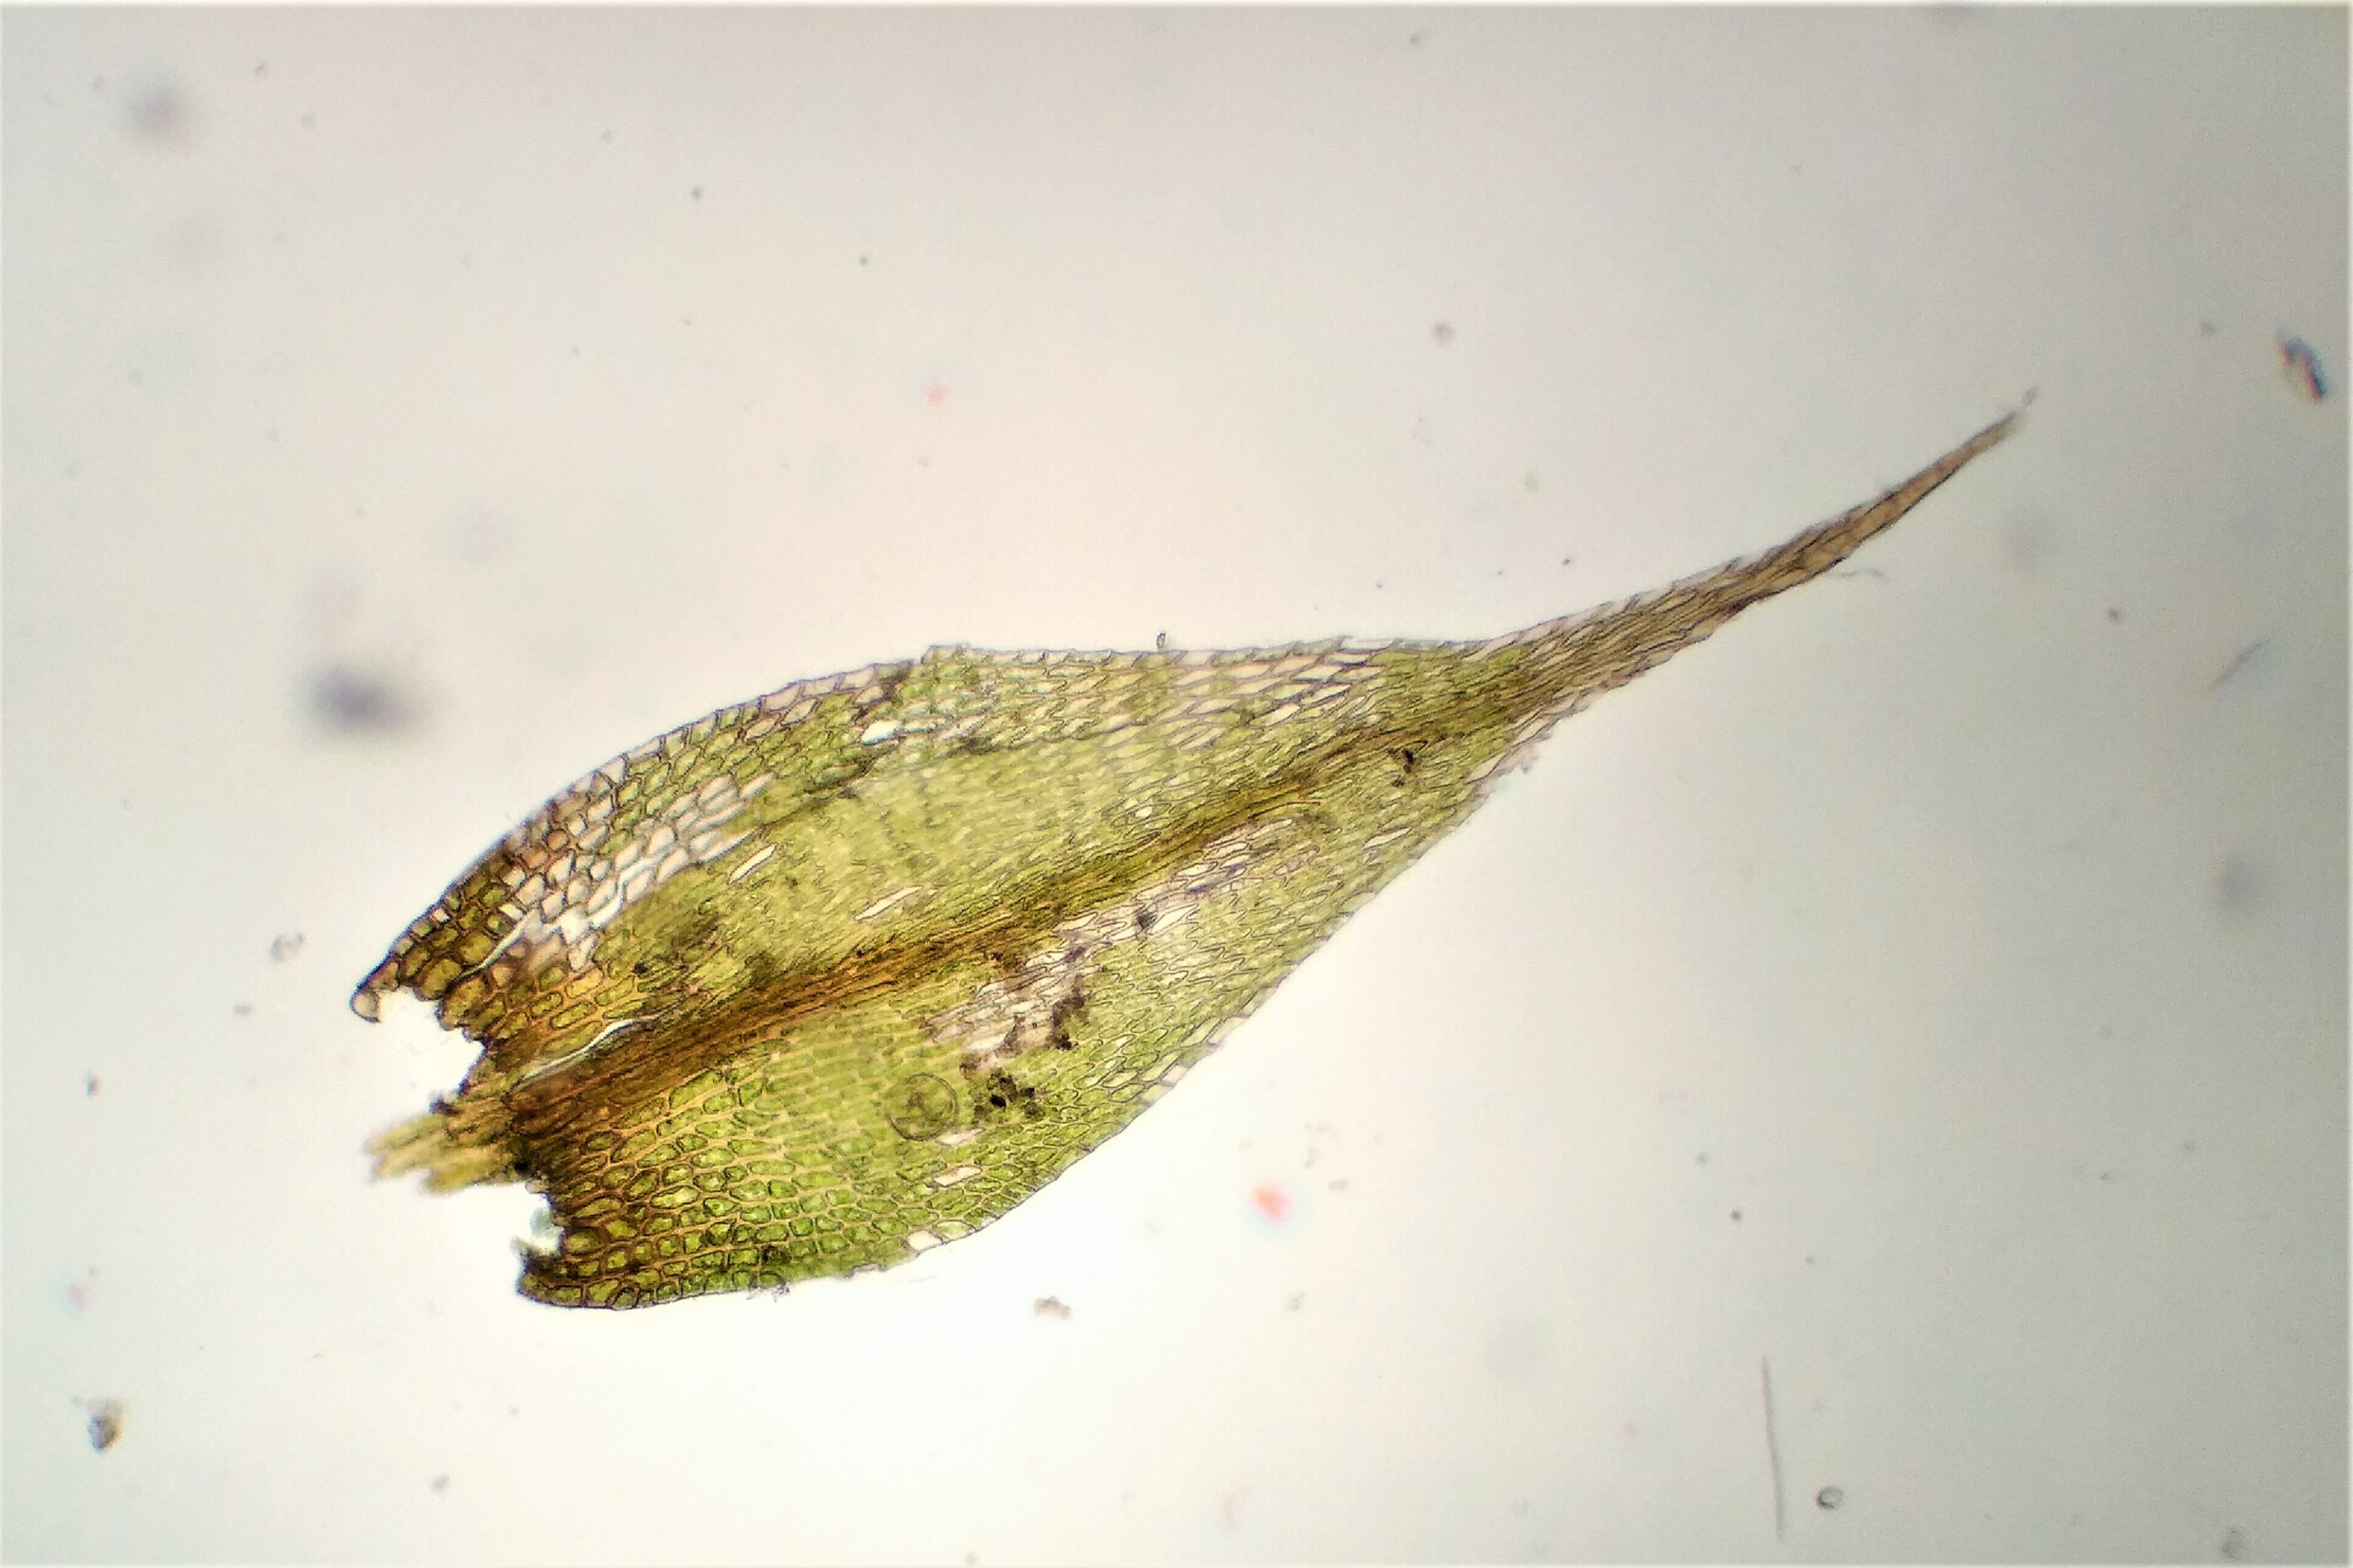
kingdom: Plantae
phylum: Bryophyta
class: Bryopsida
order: Hypnales
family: Amblystegiaceae
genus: Hygroamblystegium
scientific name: Hygroamblystegium varium
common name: Bugtet vandkrybmos
